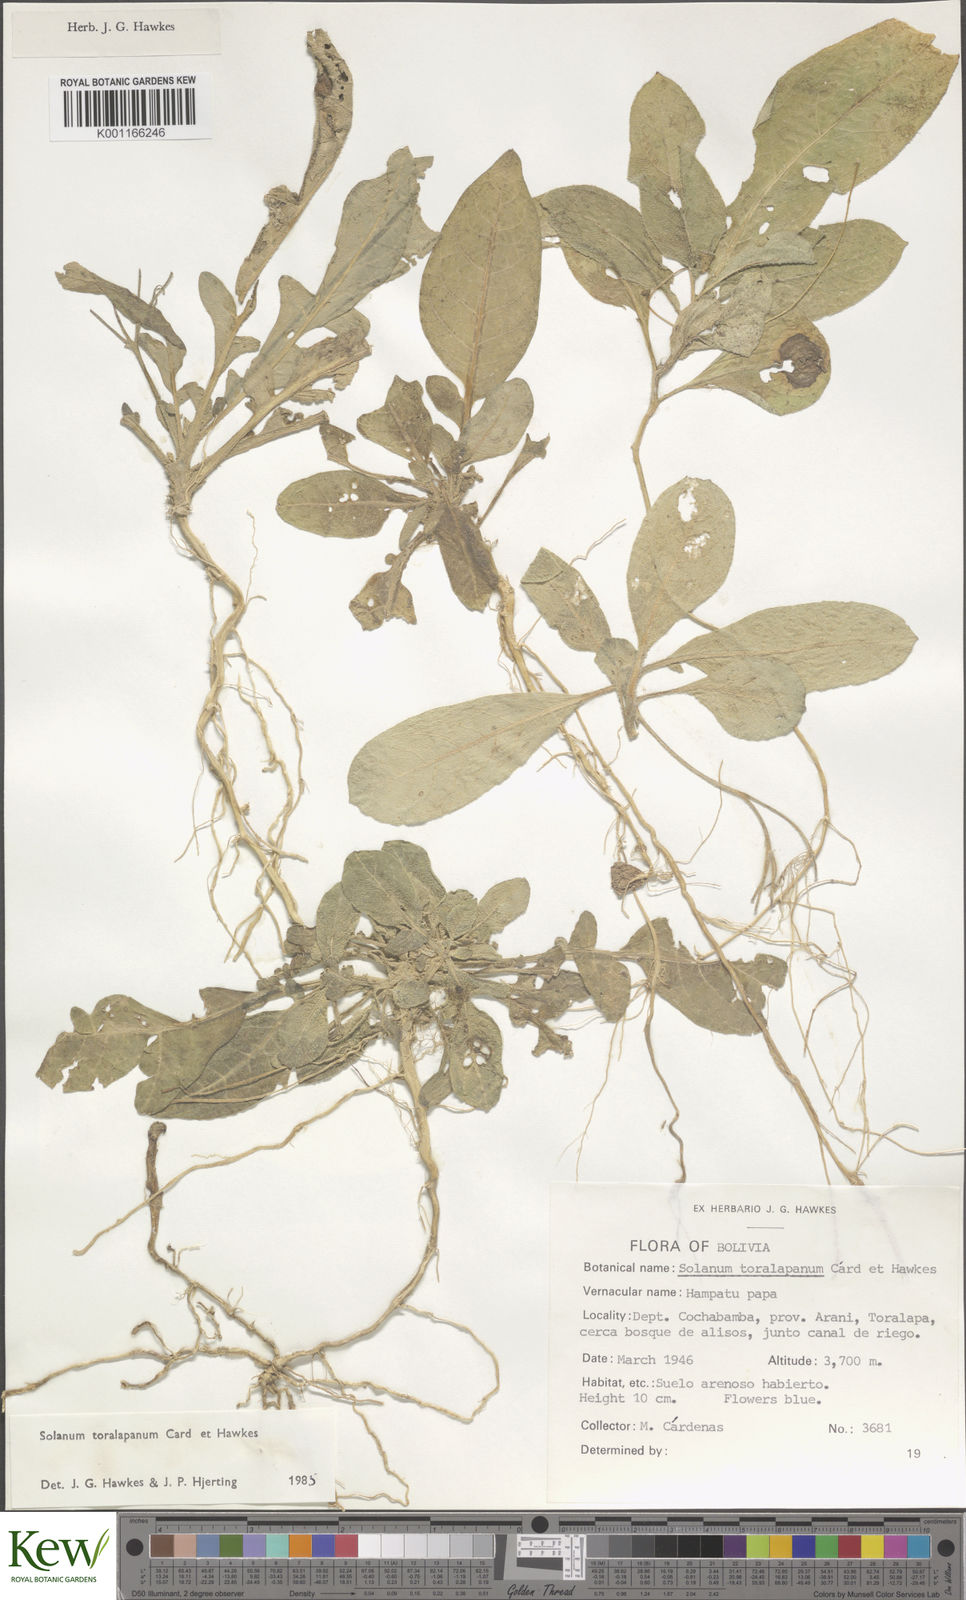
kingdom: Plantae
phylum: Tracheophyta
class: Magnoliopsida
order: Solanales
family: Solanaceae
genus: Solanum
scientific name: Solanum
